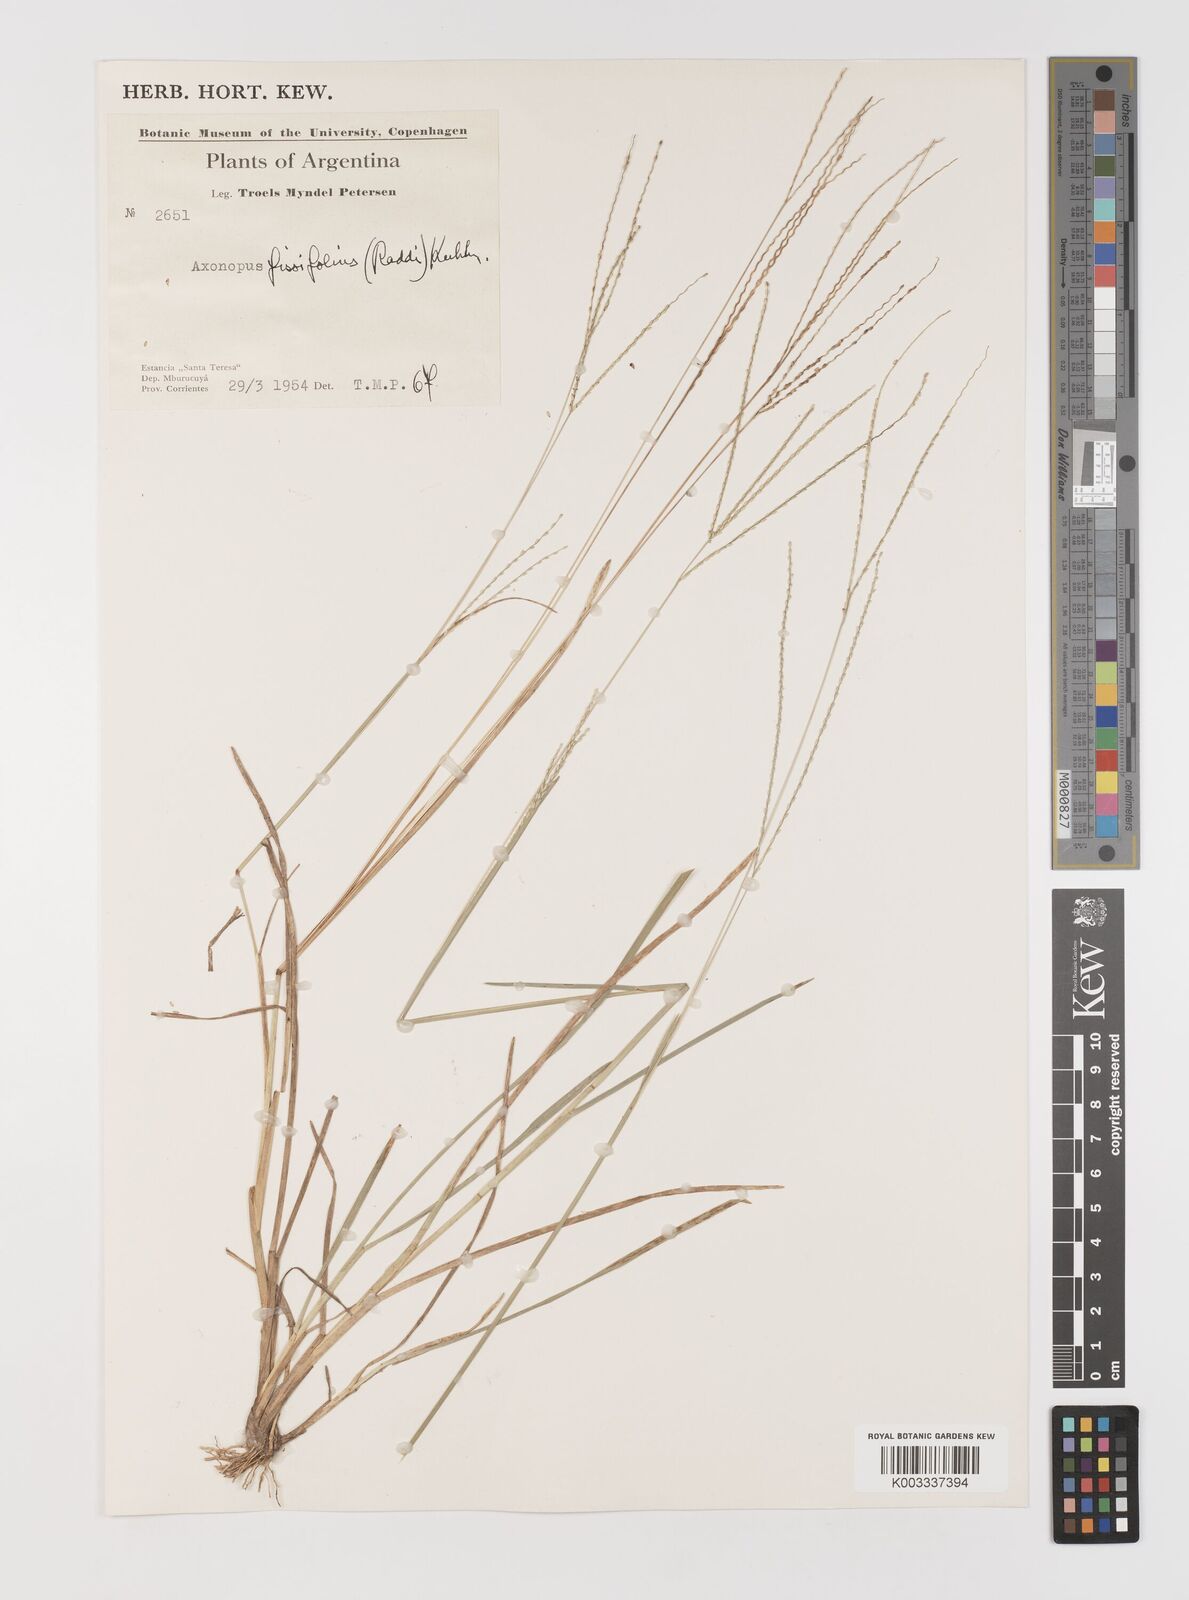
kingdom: Plantae
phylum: Tracheophyta
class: Liliopsida
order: Poales
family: Poaceae
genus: Axonopus
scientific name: Axonopus fissifolius
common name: Common carpetgrass
